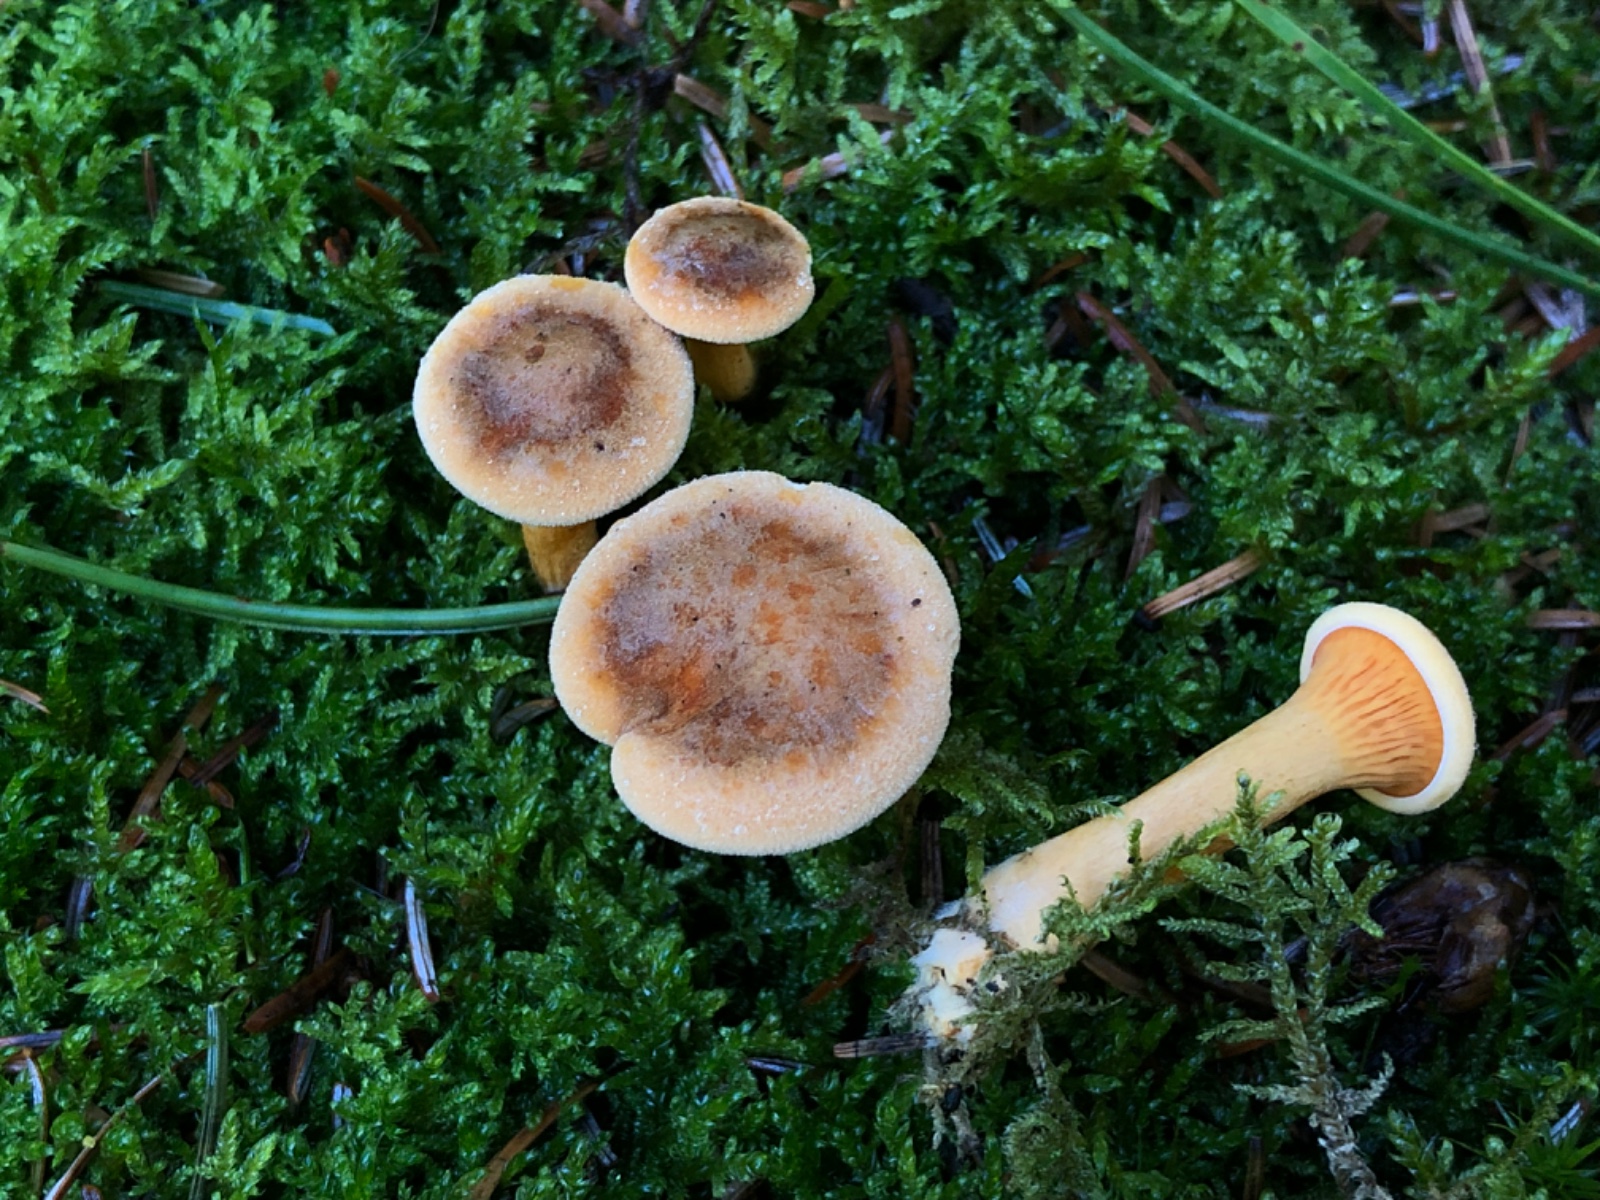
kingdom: Fungi
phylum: Basidiomycota
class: Agaricomycetes
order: Boletales
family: Hygrophoropsidaceae
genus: Hygrophoropsis
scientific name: Hygrophoropsis rufa
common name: brunfiltet orangekantarel
